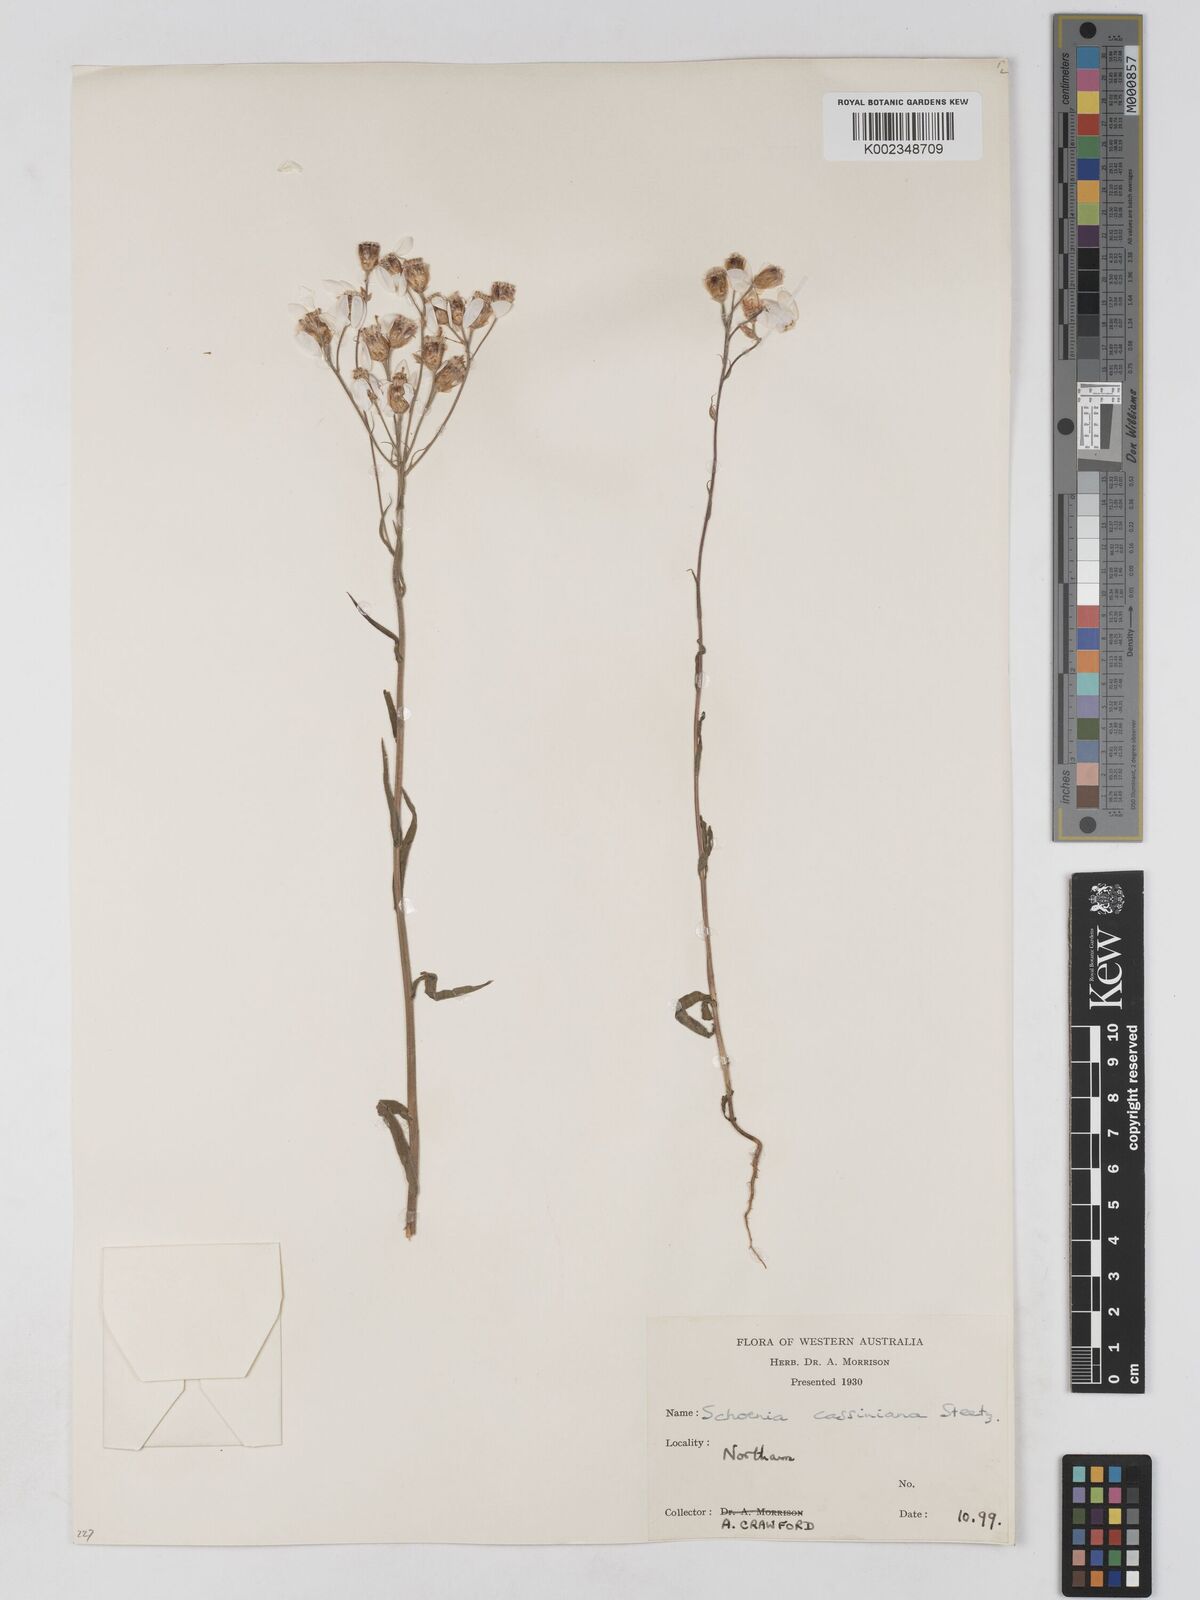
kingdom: Plantae
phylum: Tracheophyta
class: Magnoliopsida
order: Asterales
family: Asteraceae
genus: Schoenia
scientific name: Schoenia cassiniana
